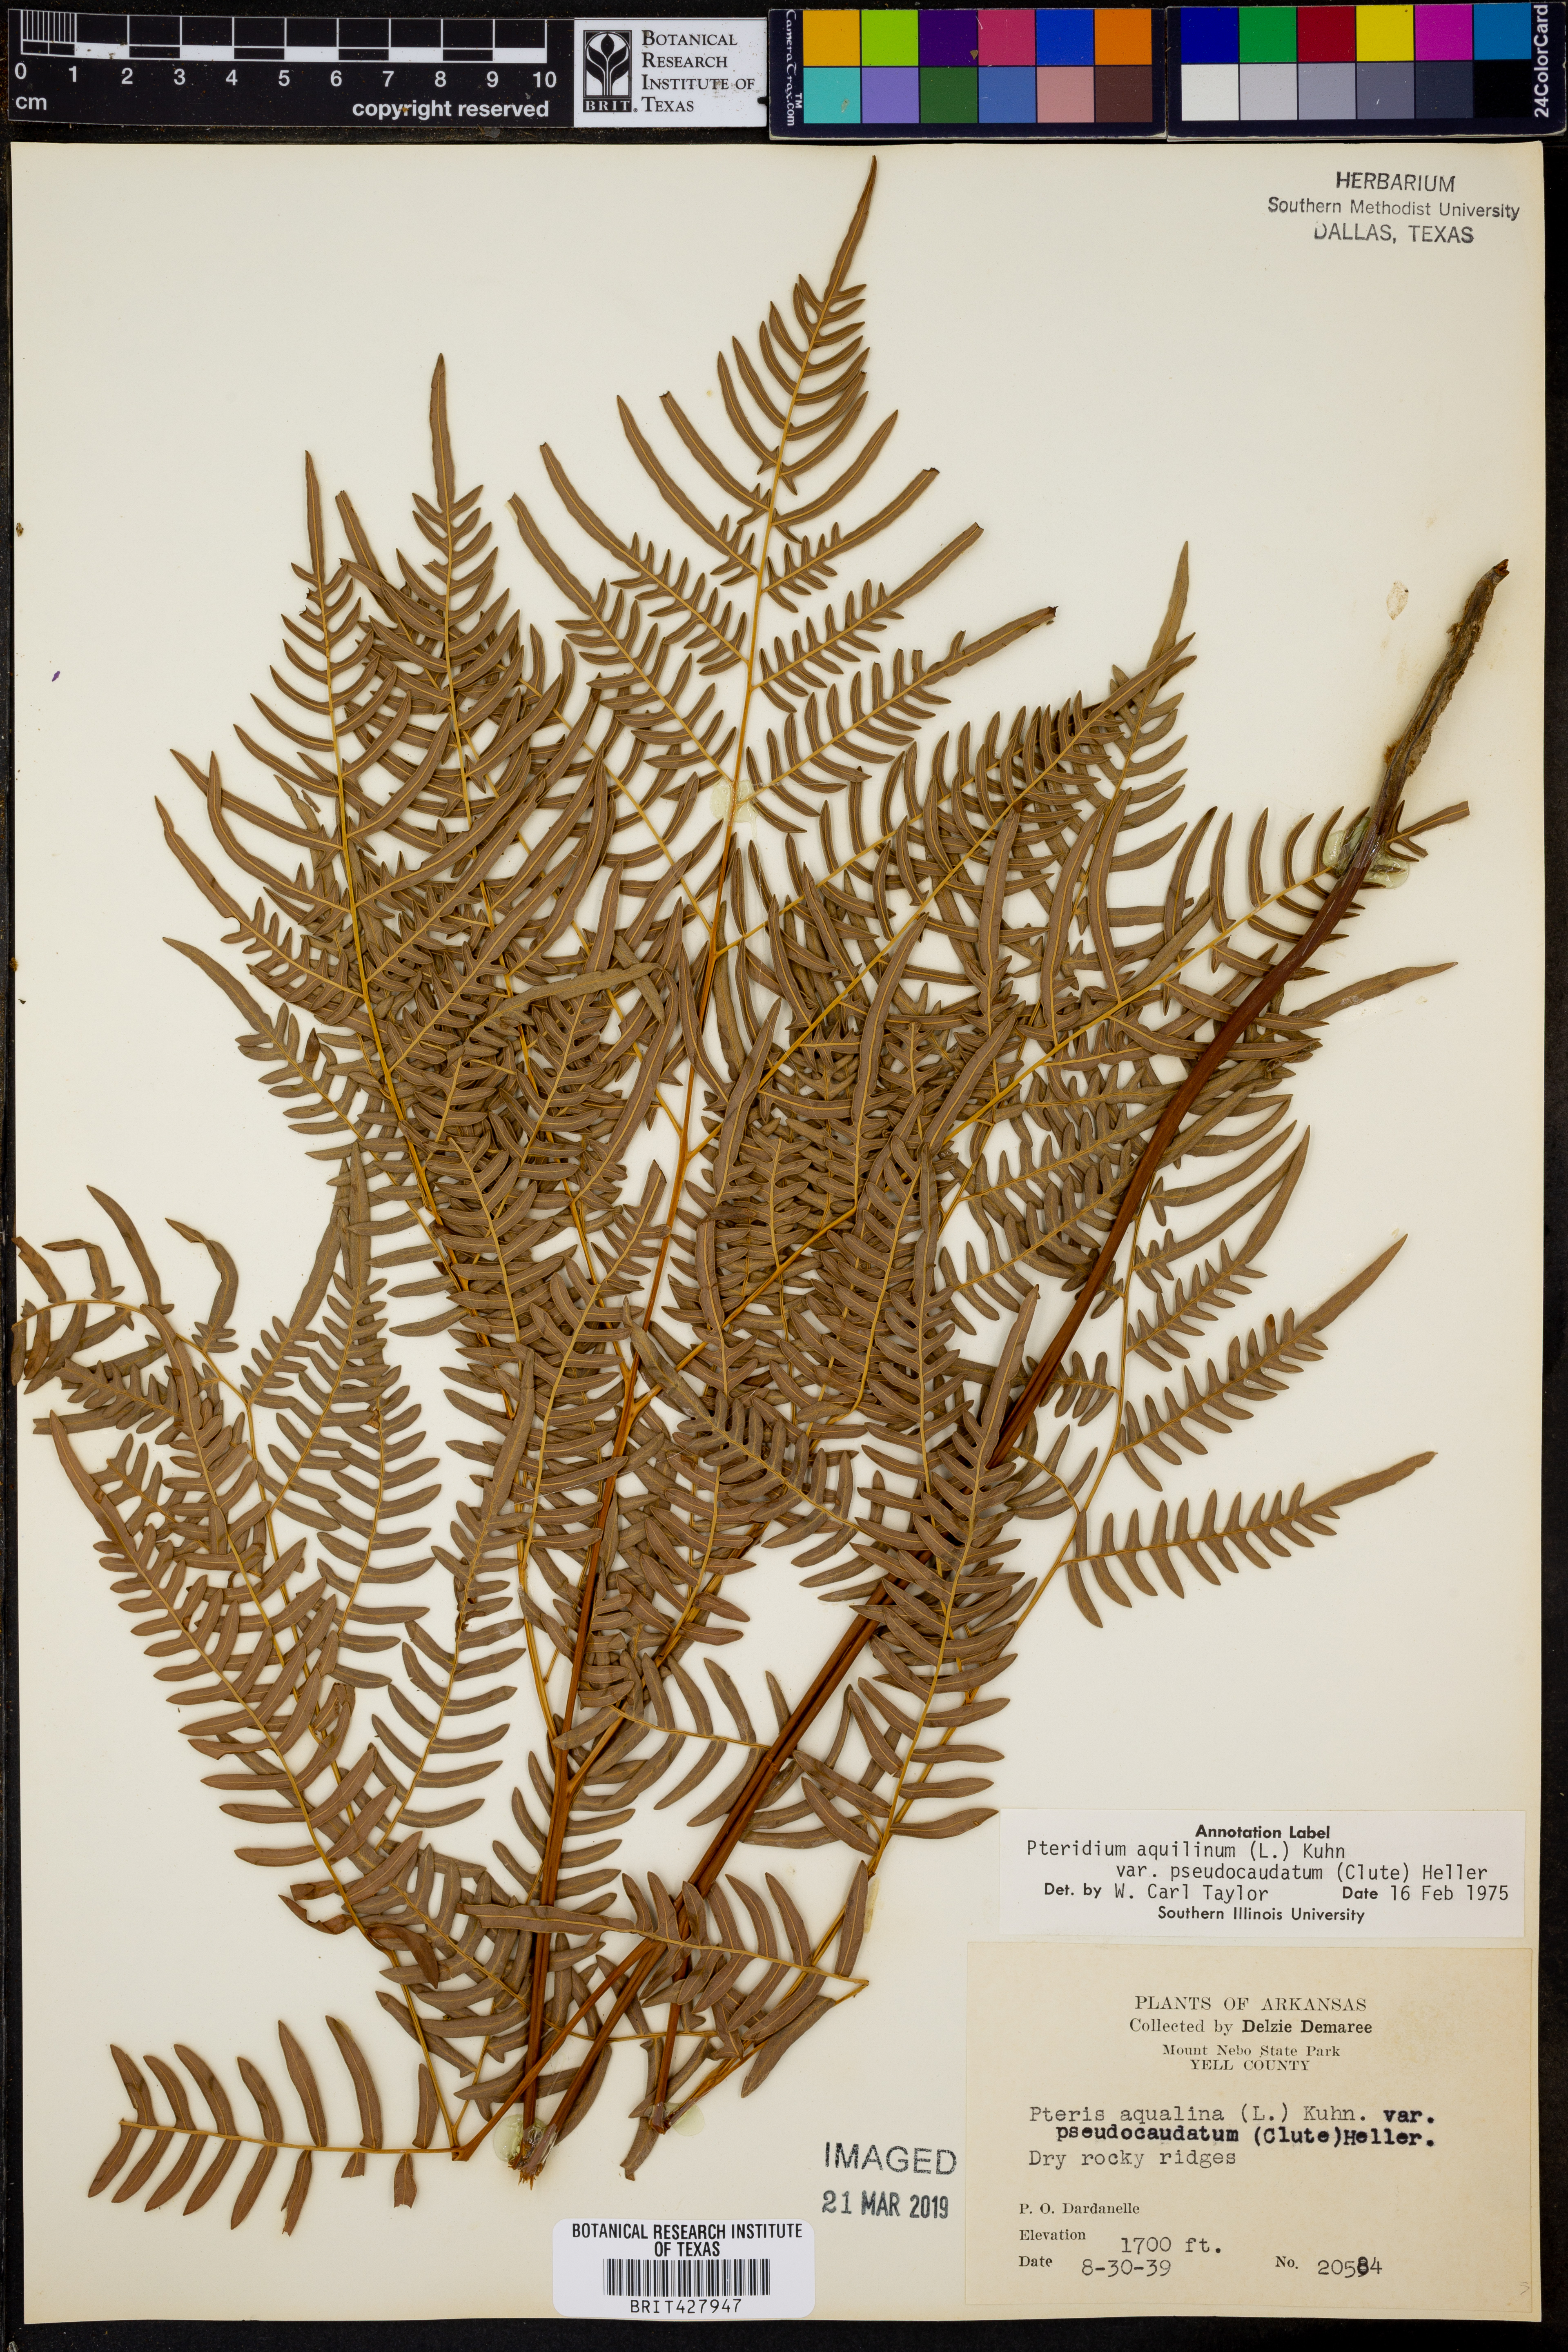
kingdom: Plantae
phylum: Tracheophyta
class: Polypodiopsida
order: Polypodiales
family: Dennstaedtiaceae
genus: Pteridium
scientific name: Pteridium aquilinum
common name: Bracken
